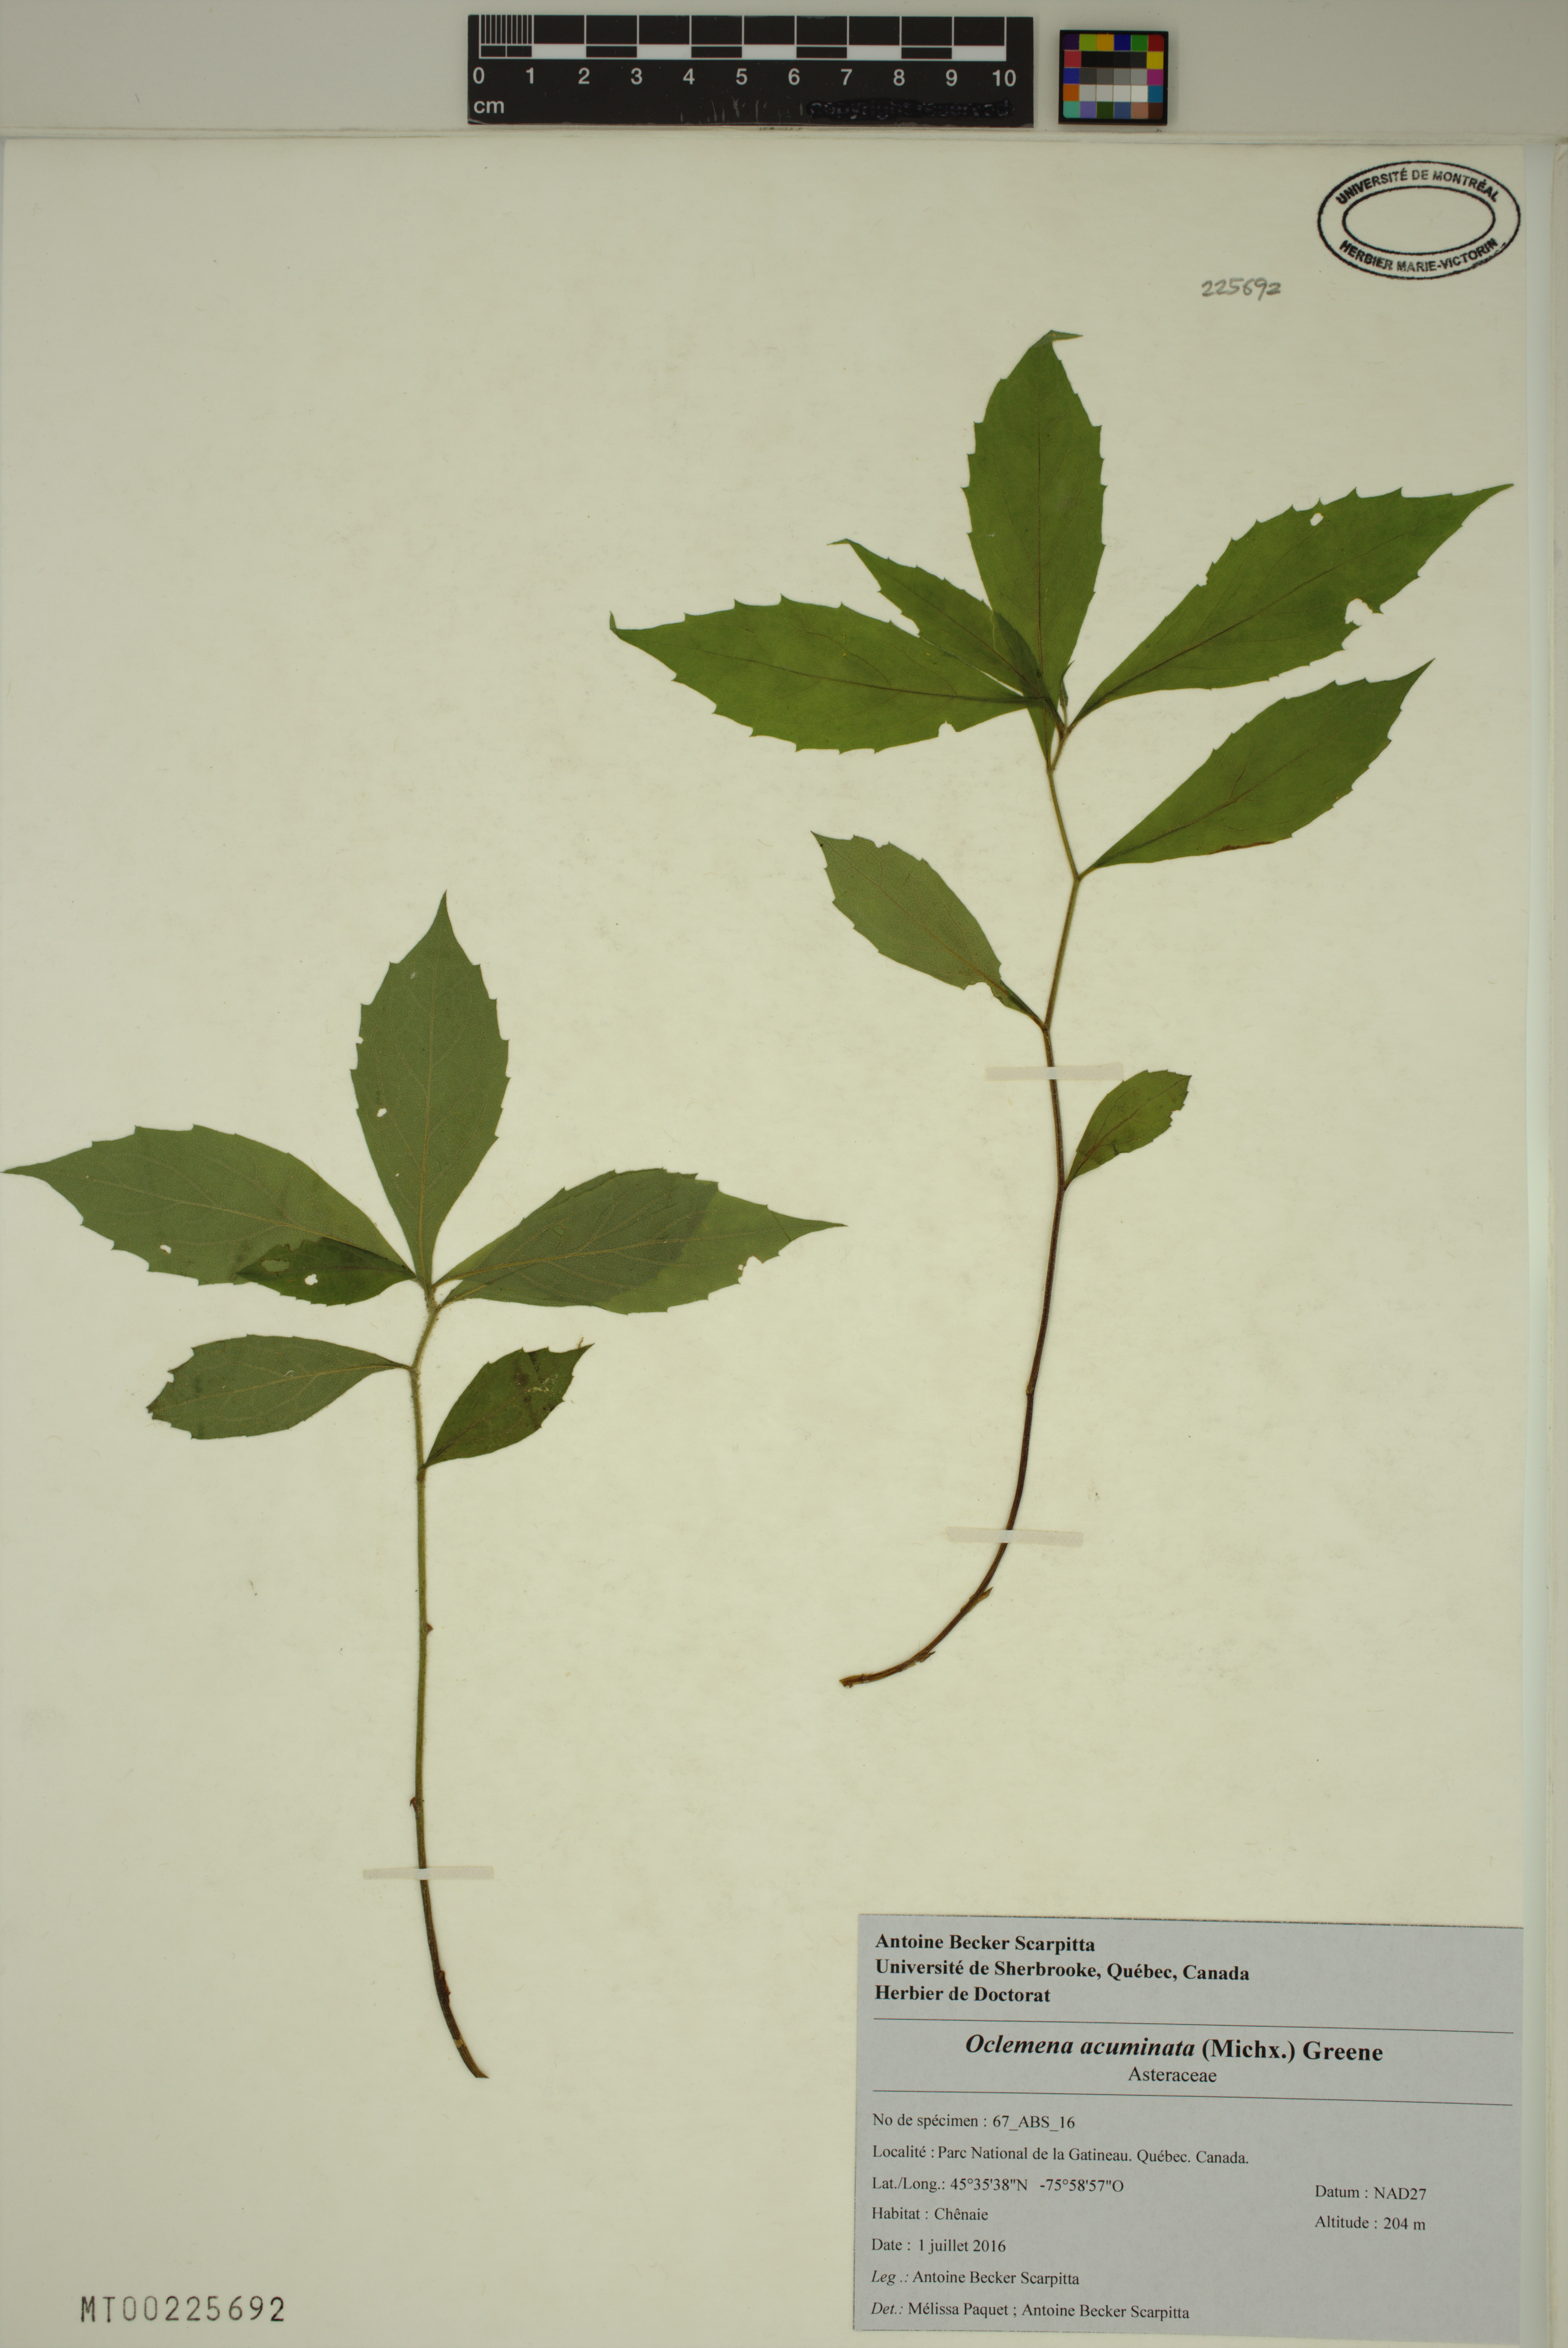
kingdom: Plantae
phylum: Tracheophyta
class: Magnoliopsida
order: Asterales
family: Asteraceae
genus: Oclemena
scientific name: Oclemena acuminata
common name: Mountain aster
